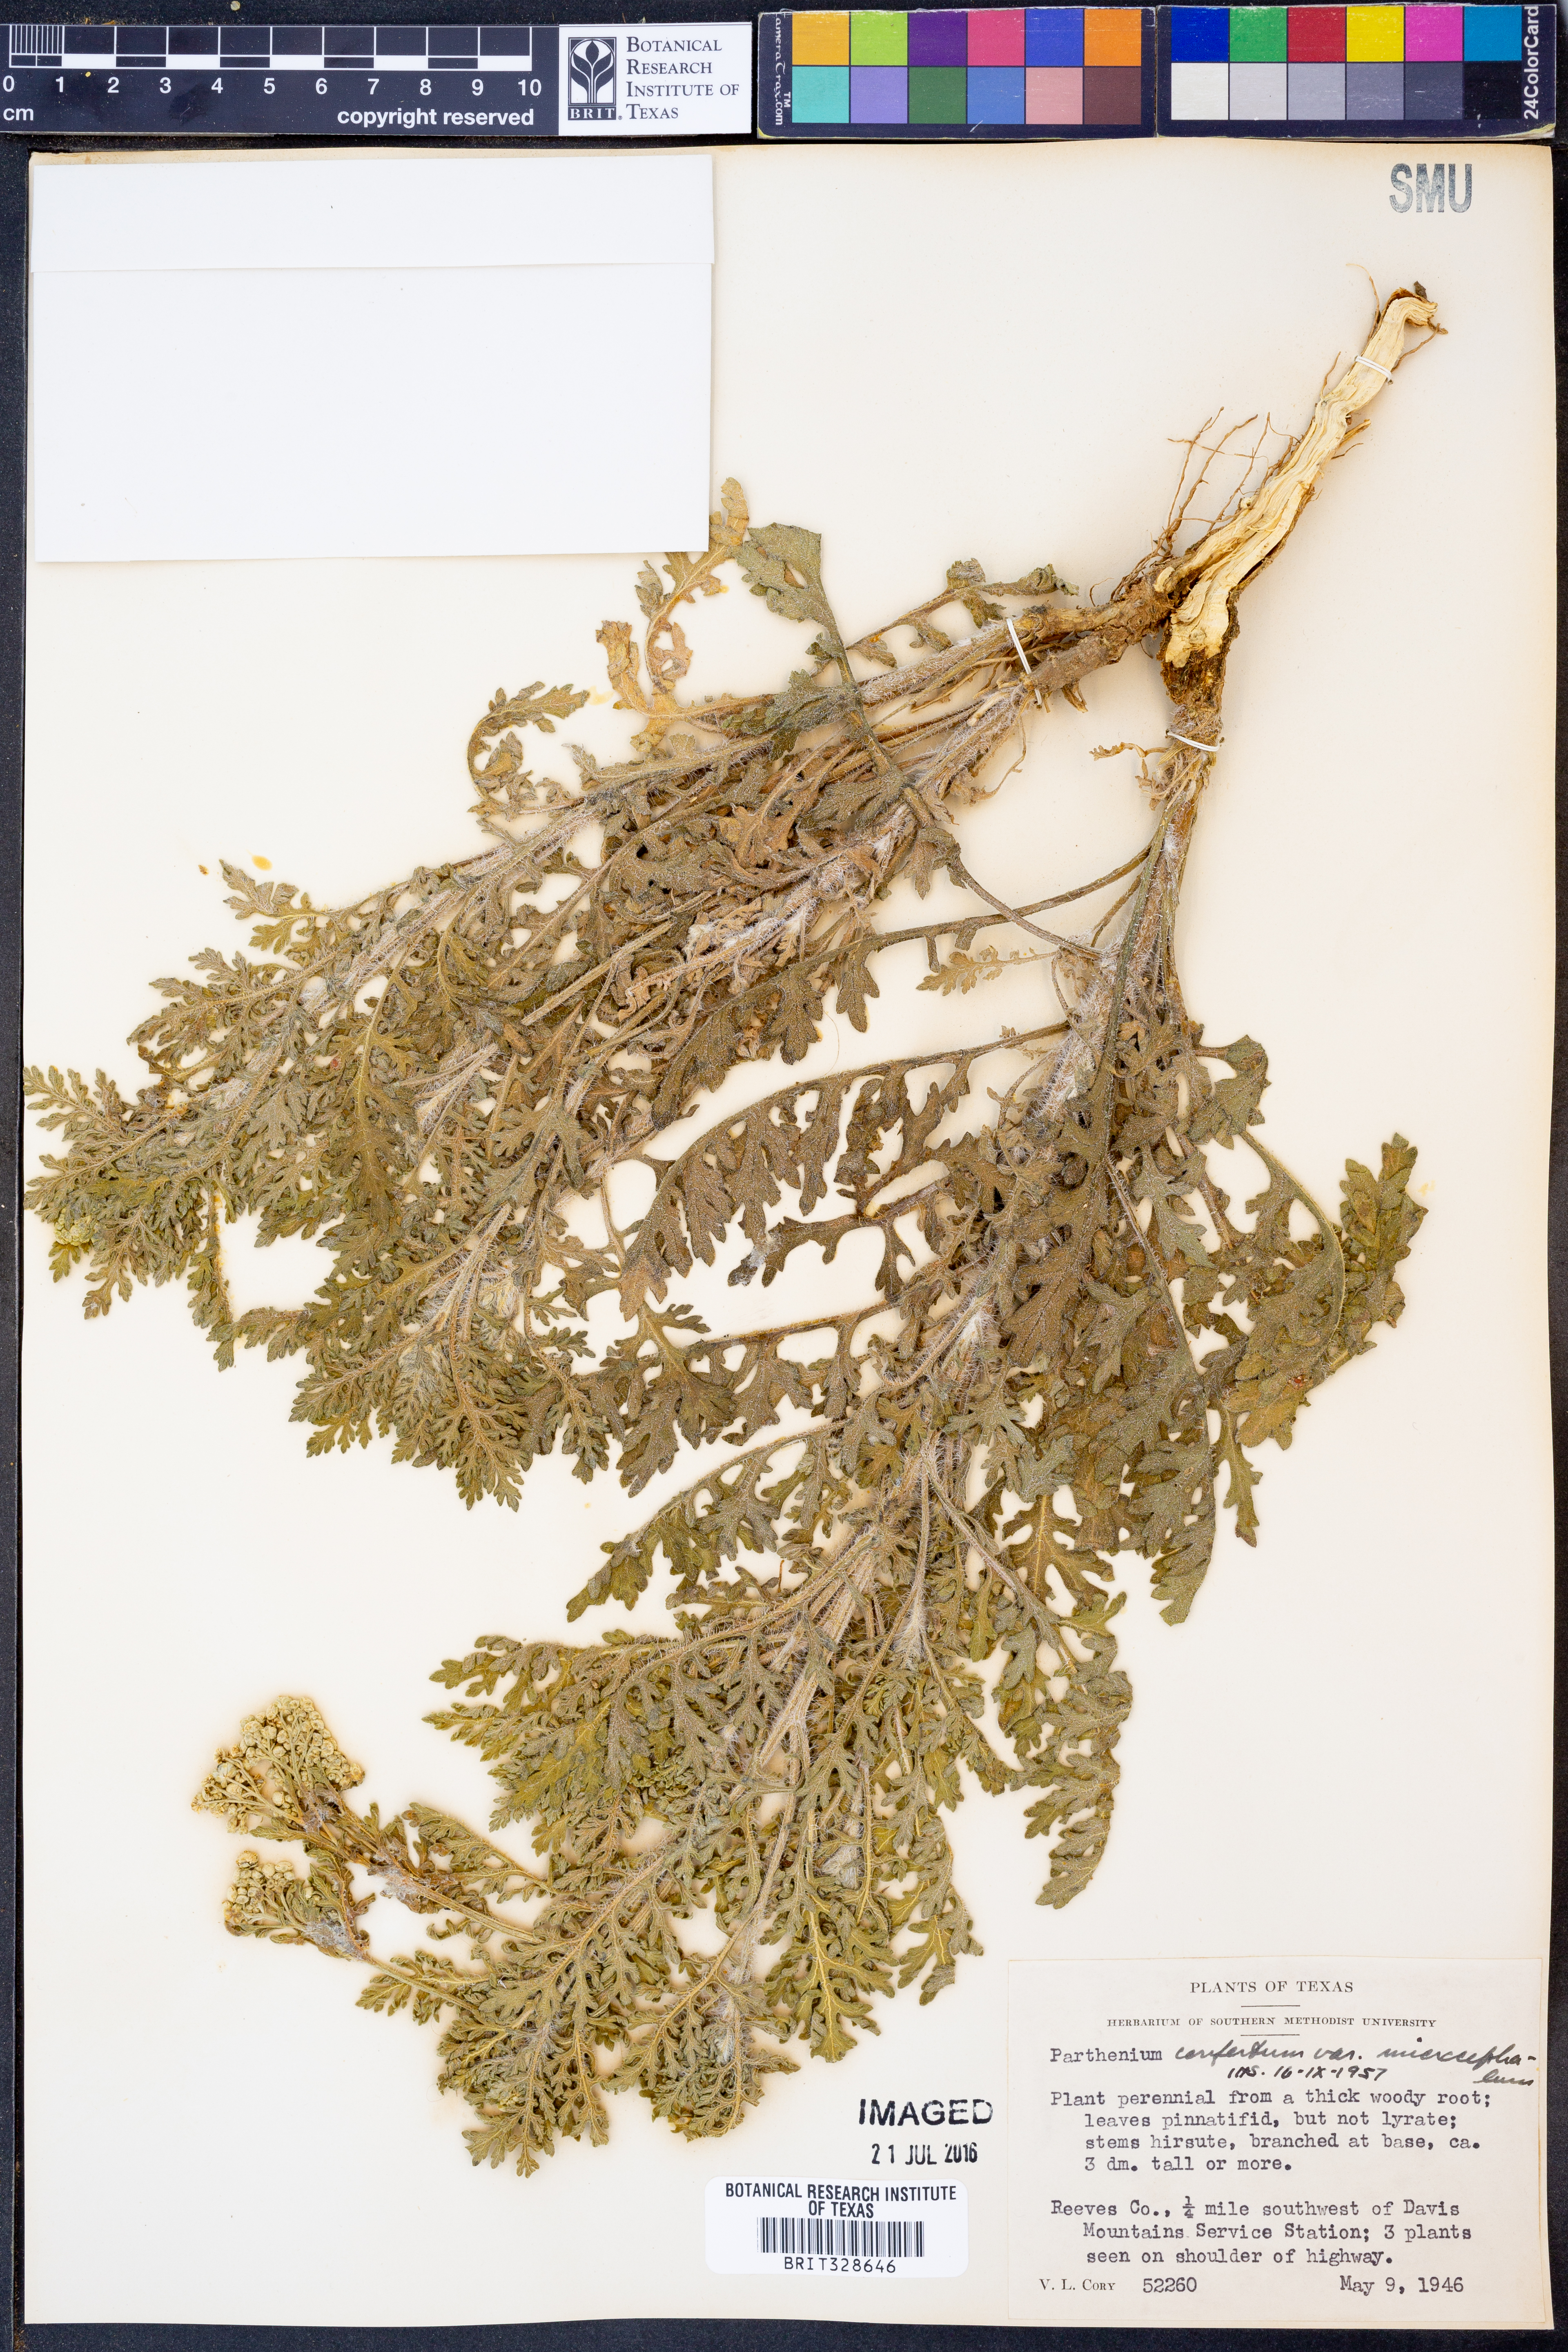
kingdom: Plantae
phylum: Tracheophyta
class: Magnoliopsida
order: Asterales
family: Asteraceae
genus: Parthenium
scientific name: Parthenium confertum
